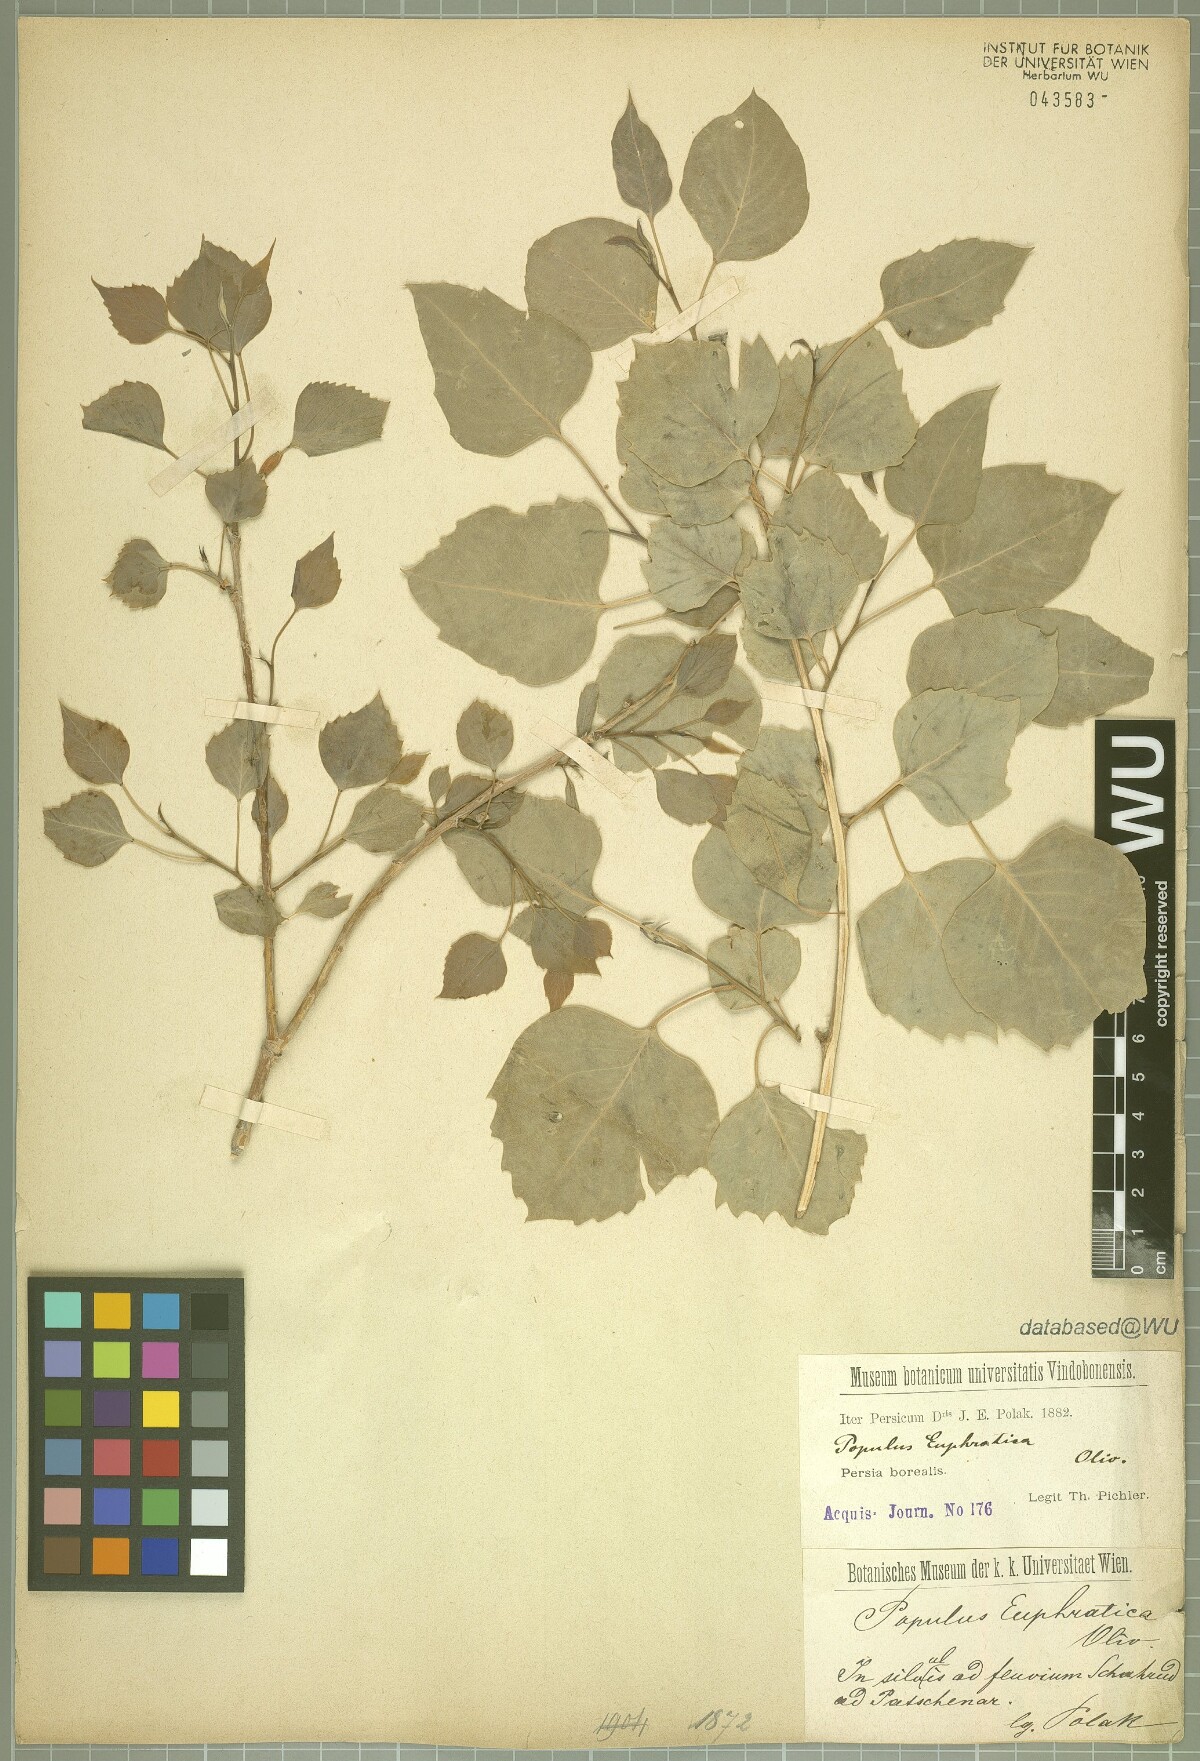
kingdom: Plantae
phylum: Tracheophyta
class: Magnoliopsida
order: Malpighiales
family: Salicaceae
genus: Populus
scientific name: Populus euphratica
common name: Euphrates poplar
